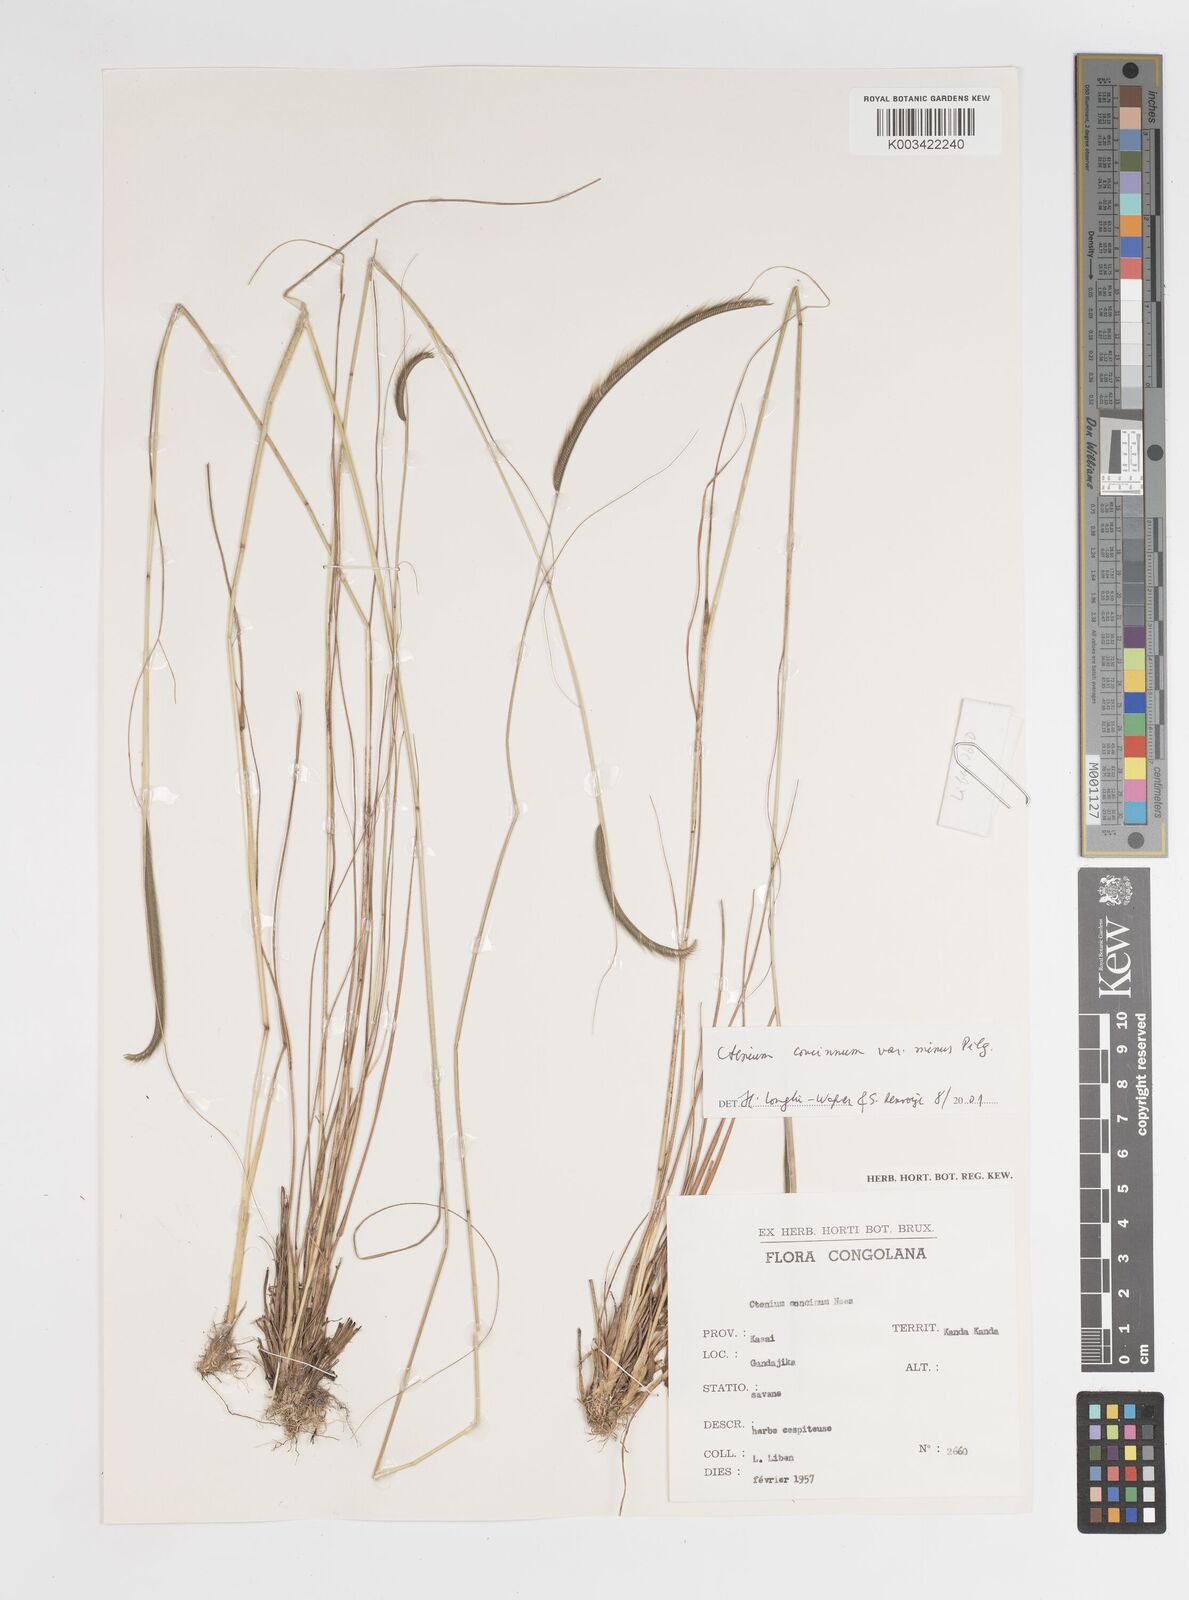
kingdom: Plantae
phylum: Tracheophyta
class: Liliopsida
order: Poales
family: Poaceae
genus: Ctenium
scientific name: Ctenium concinnum
